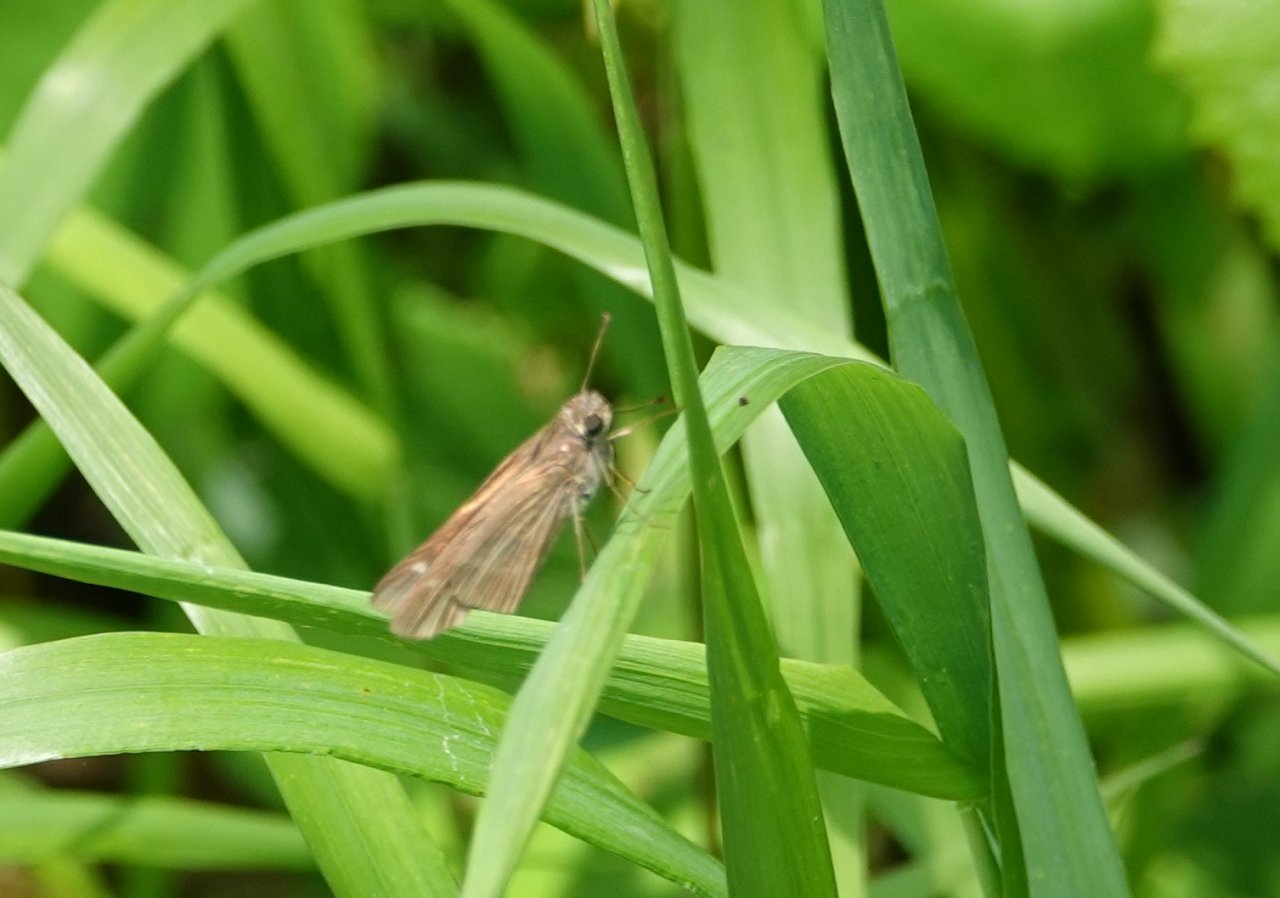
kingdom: Animalia
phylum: Arthropoda
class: Insecta
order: Lepidoptera
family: Hesperiidae
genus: Panoquina
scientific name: Panoquina ocola
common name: Ocola Skipper
